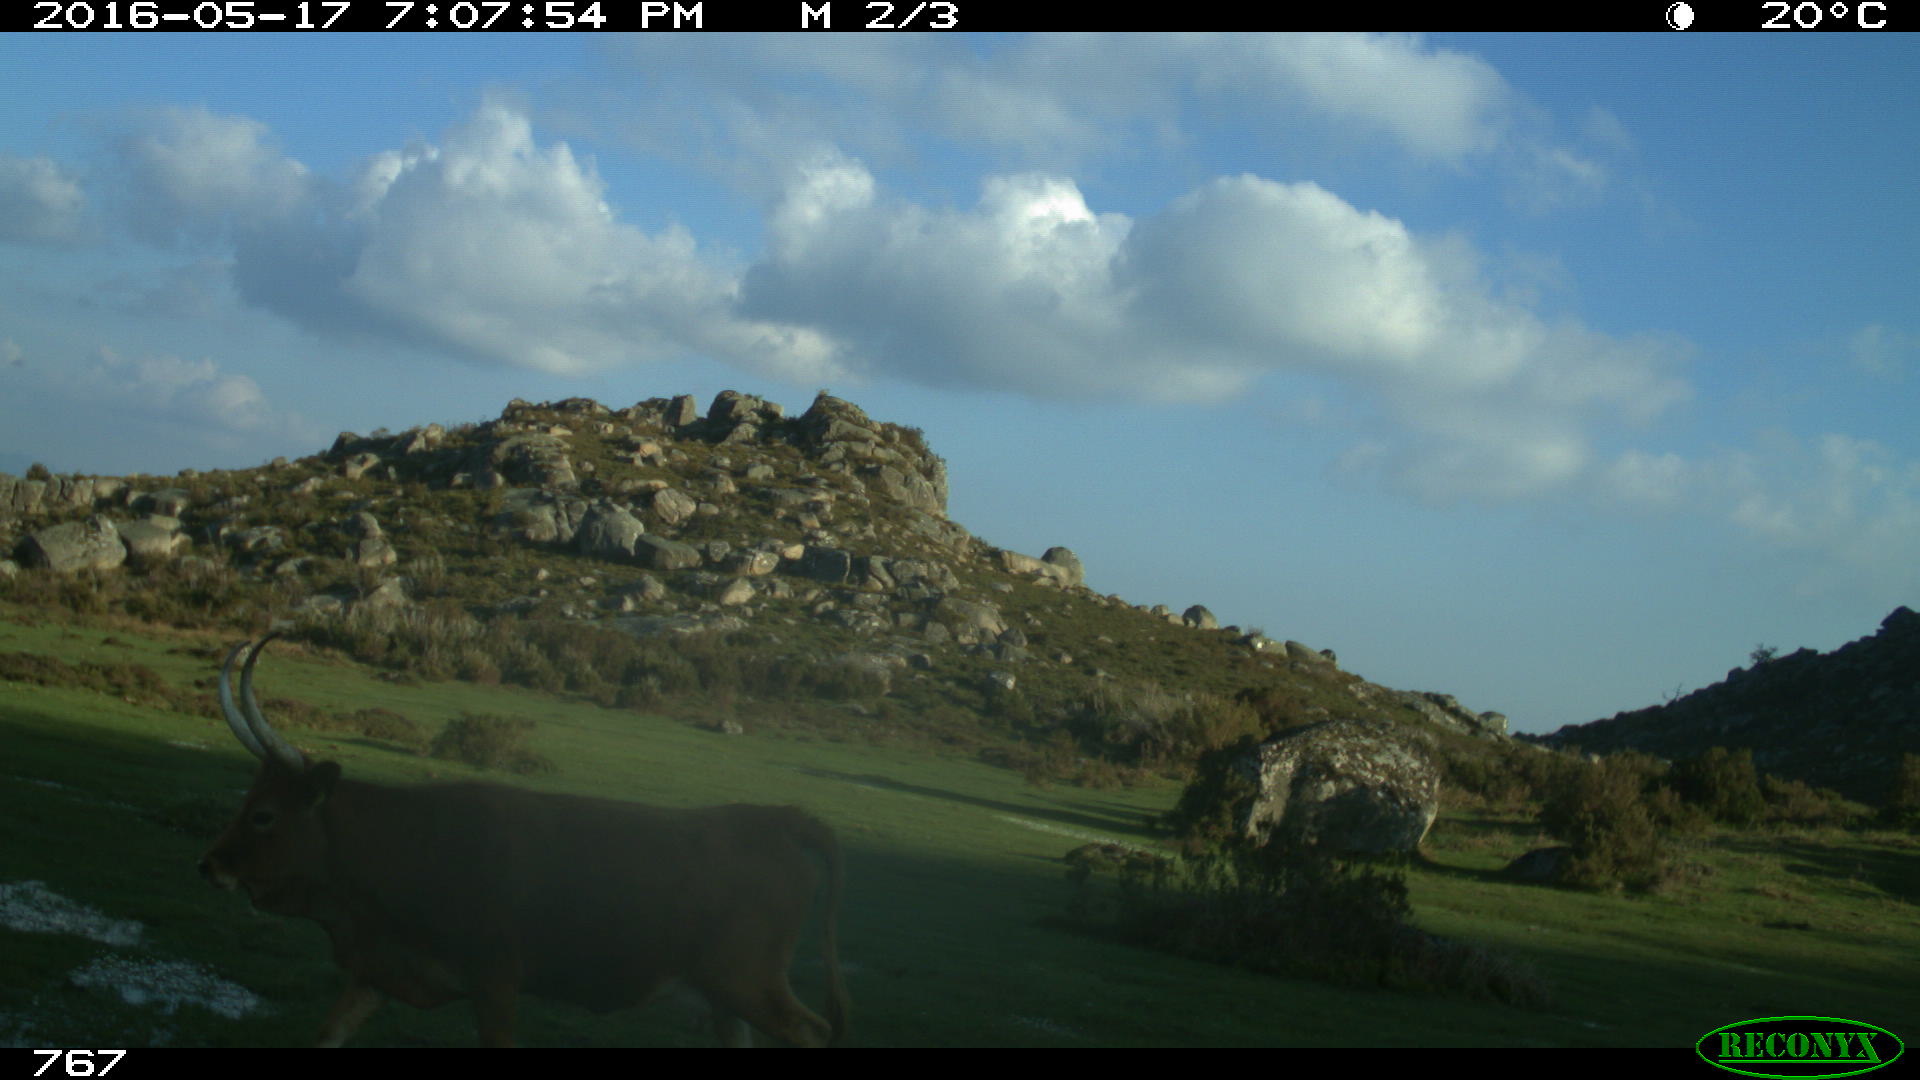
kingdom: Animalia
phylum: Chordata
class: Mammalia
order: Artiodactyla
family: Bovidae
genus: Bos
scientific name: Bos taurus
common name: Domesticated cattle
